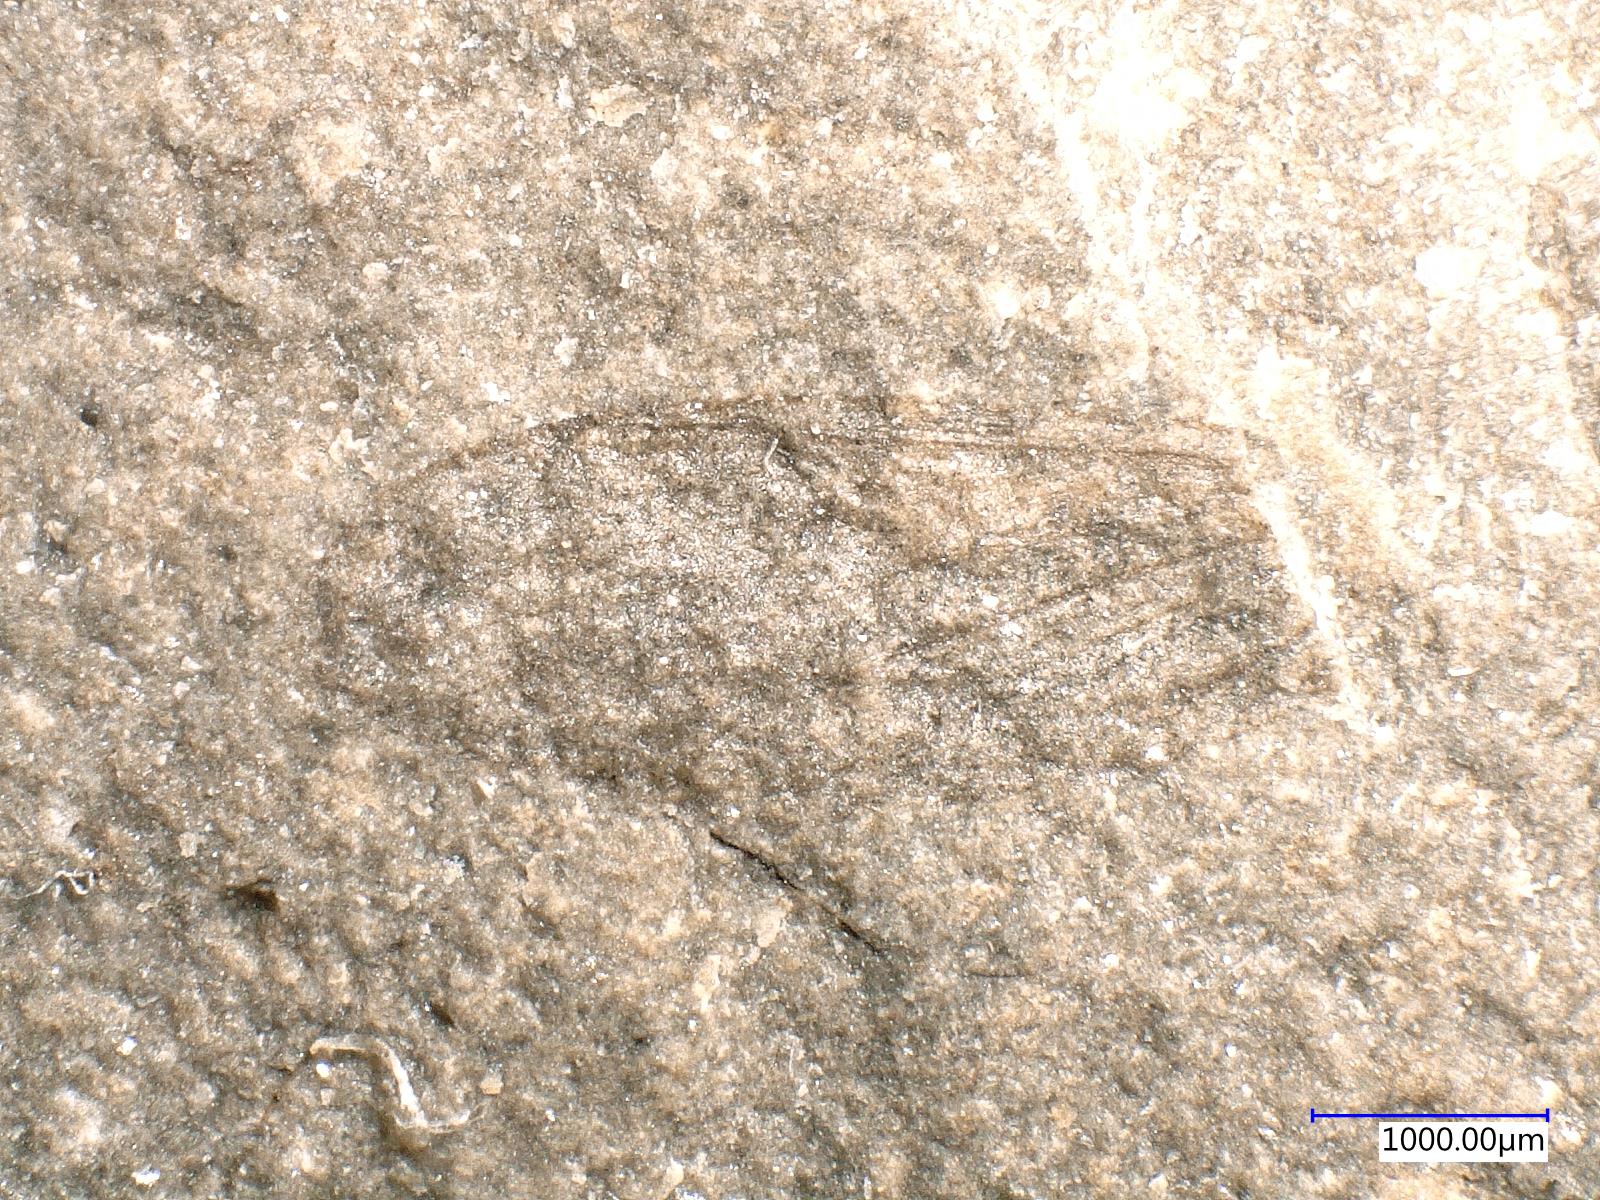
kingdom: Animalia
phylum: Arthropoda
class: Insecta
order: Diptera
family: Limoniidae
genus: Grimmenia
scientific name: Grimmenia
